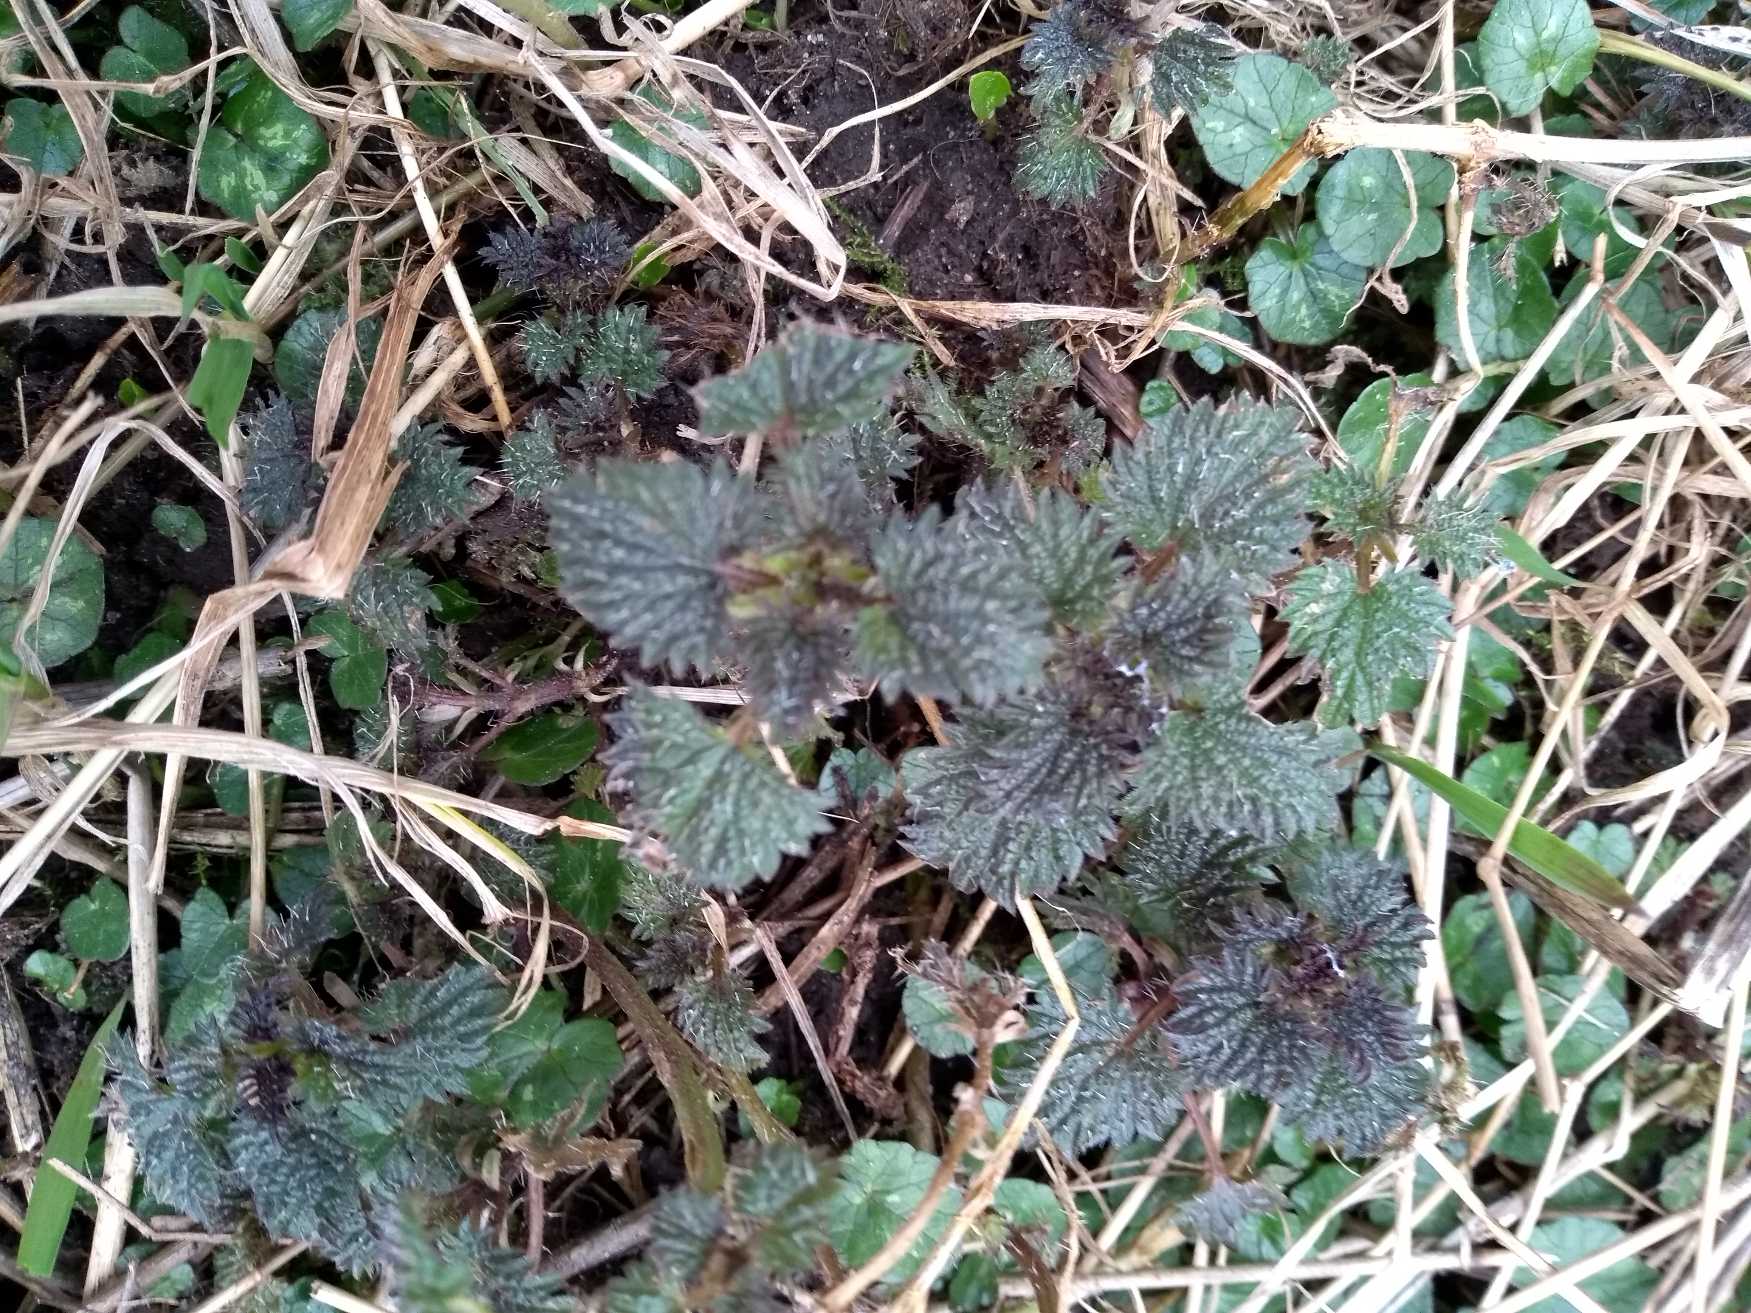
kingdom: Plantae
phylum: Tracheophyta
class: Magnoliopsida
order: Rosales
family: Urticaceae
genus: Urtica
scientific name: Urtica dioica
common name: Stor nælde
